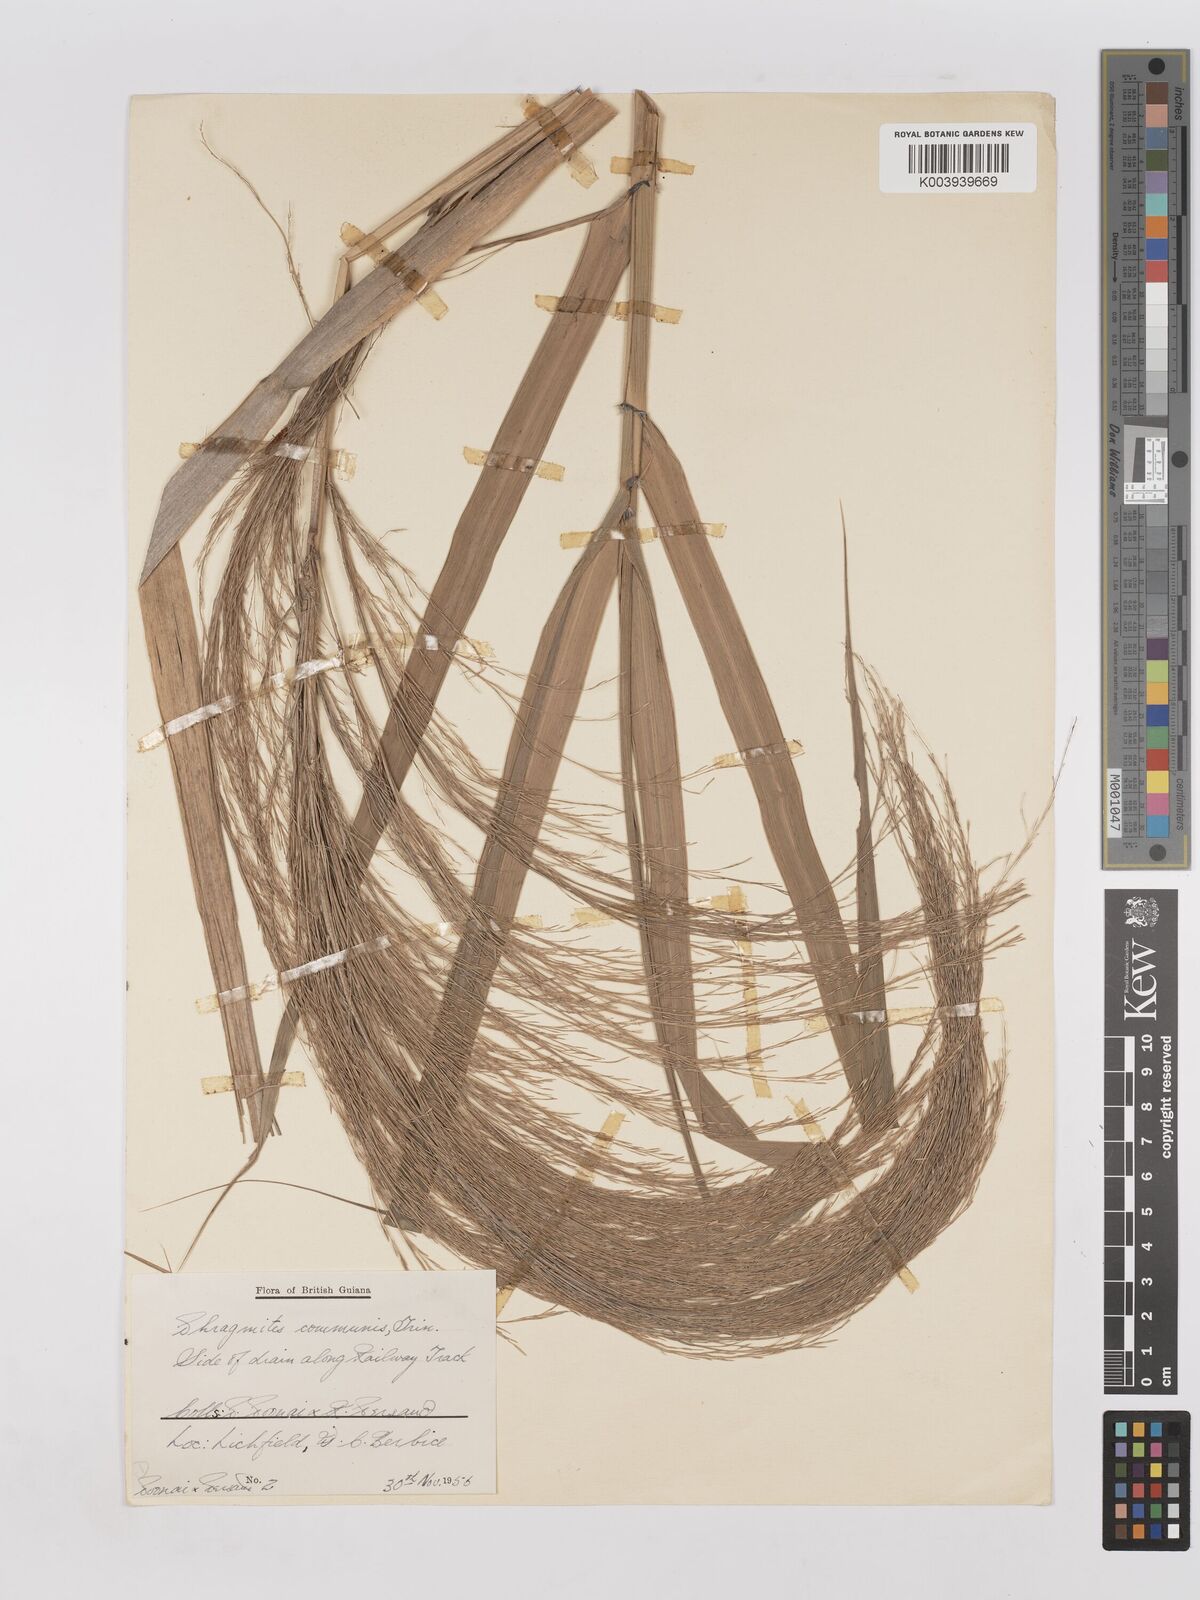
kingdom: Plantae
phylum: Tracheophyta
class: Liliopsida
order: Poales
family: Poaceae
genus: Phragmites
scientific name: Phragmites australis
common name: Common reed
